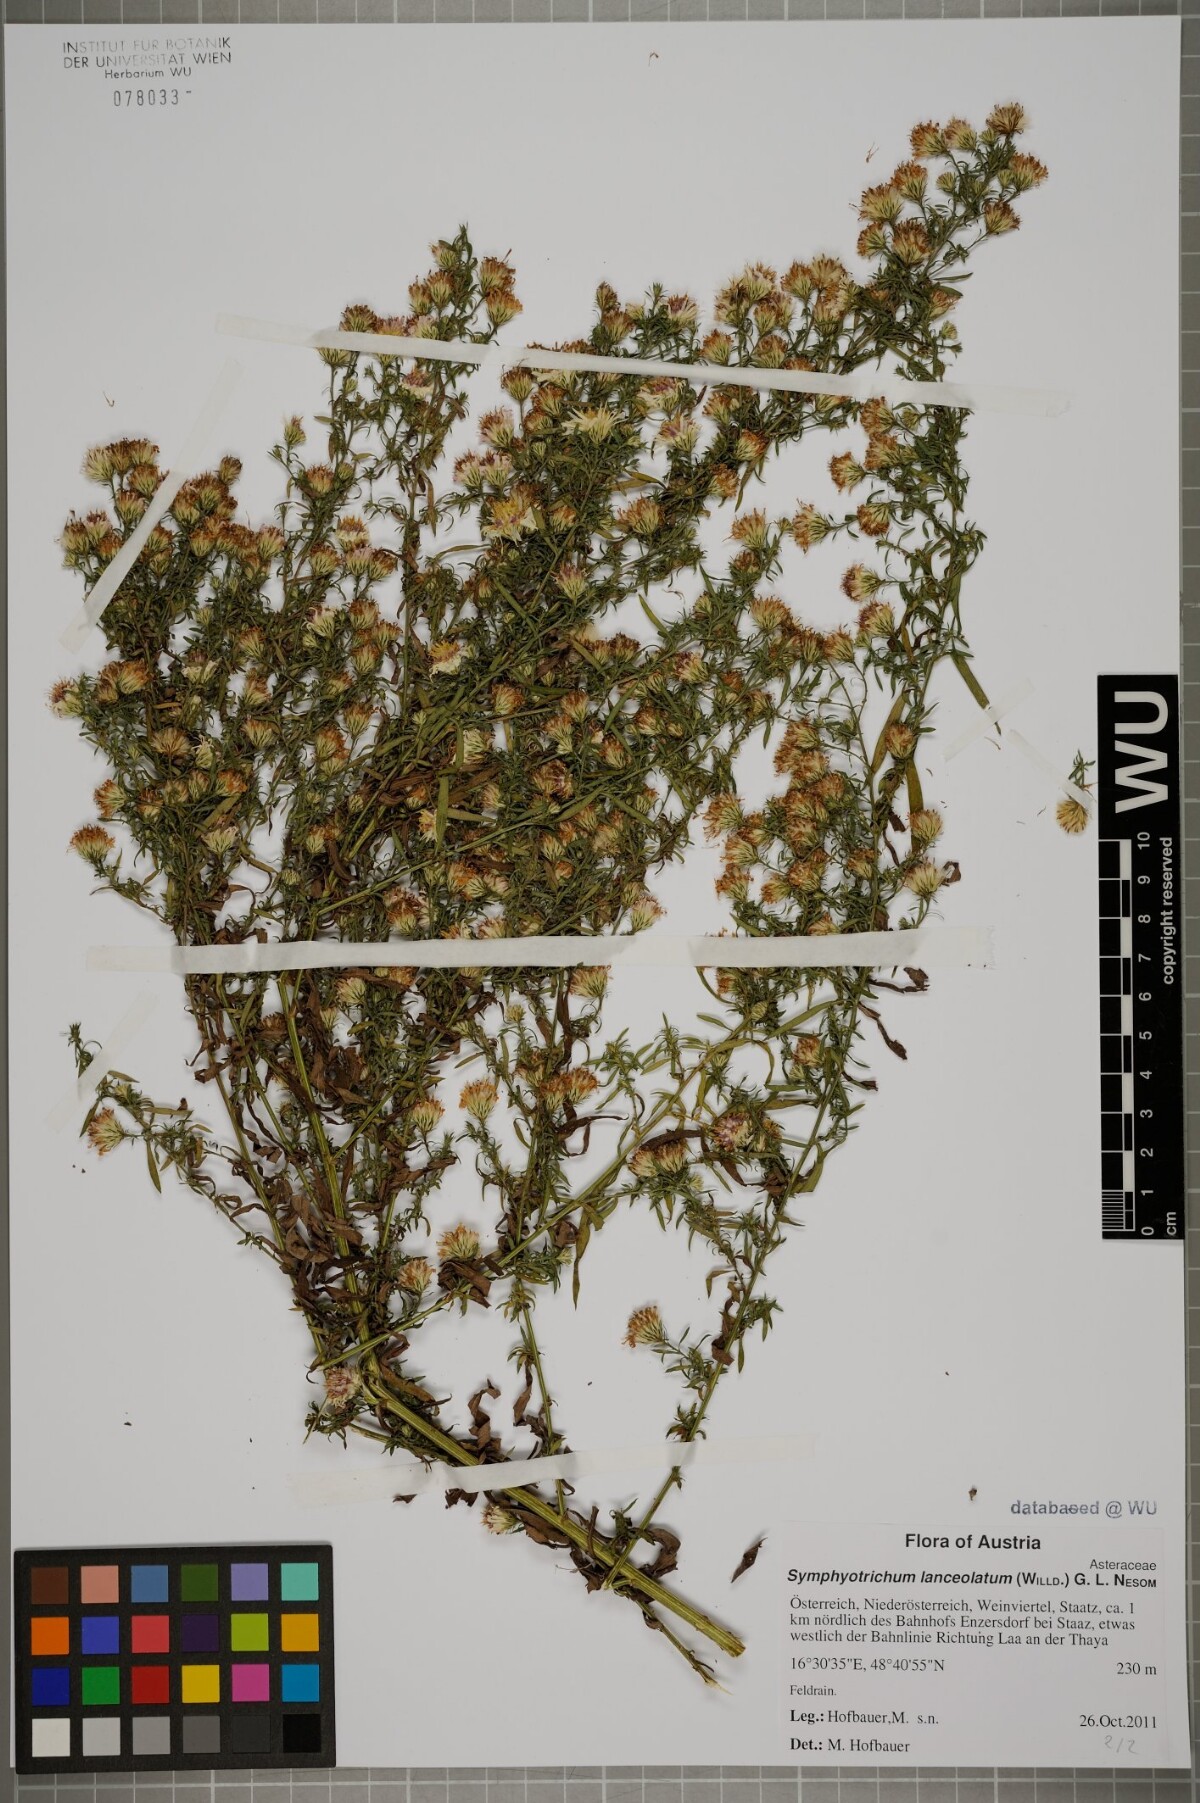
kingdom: Plantae
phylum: Tracheophyta
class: Magnoliopsida
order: Asterales
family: Asteraceae
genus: Symphyotrichum
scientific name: Symphyotrichum lanceolatum
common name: Panicled aster
